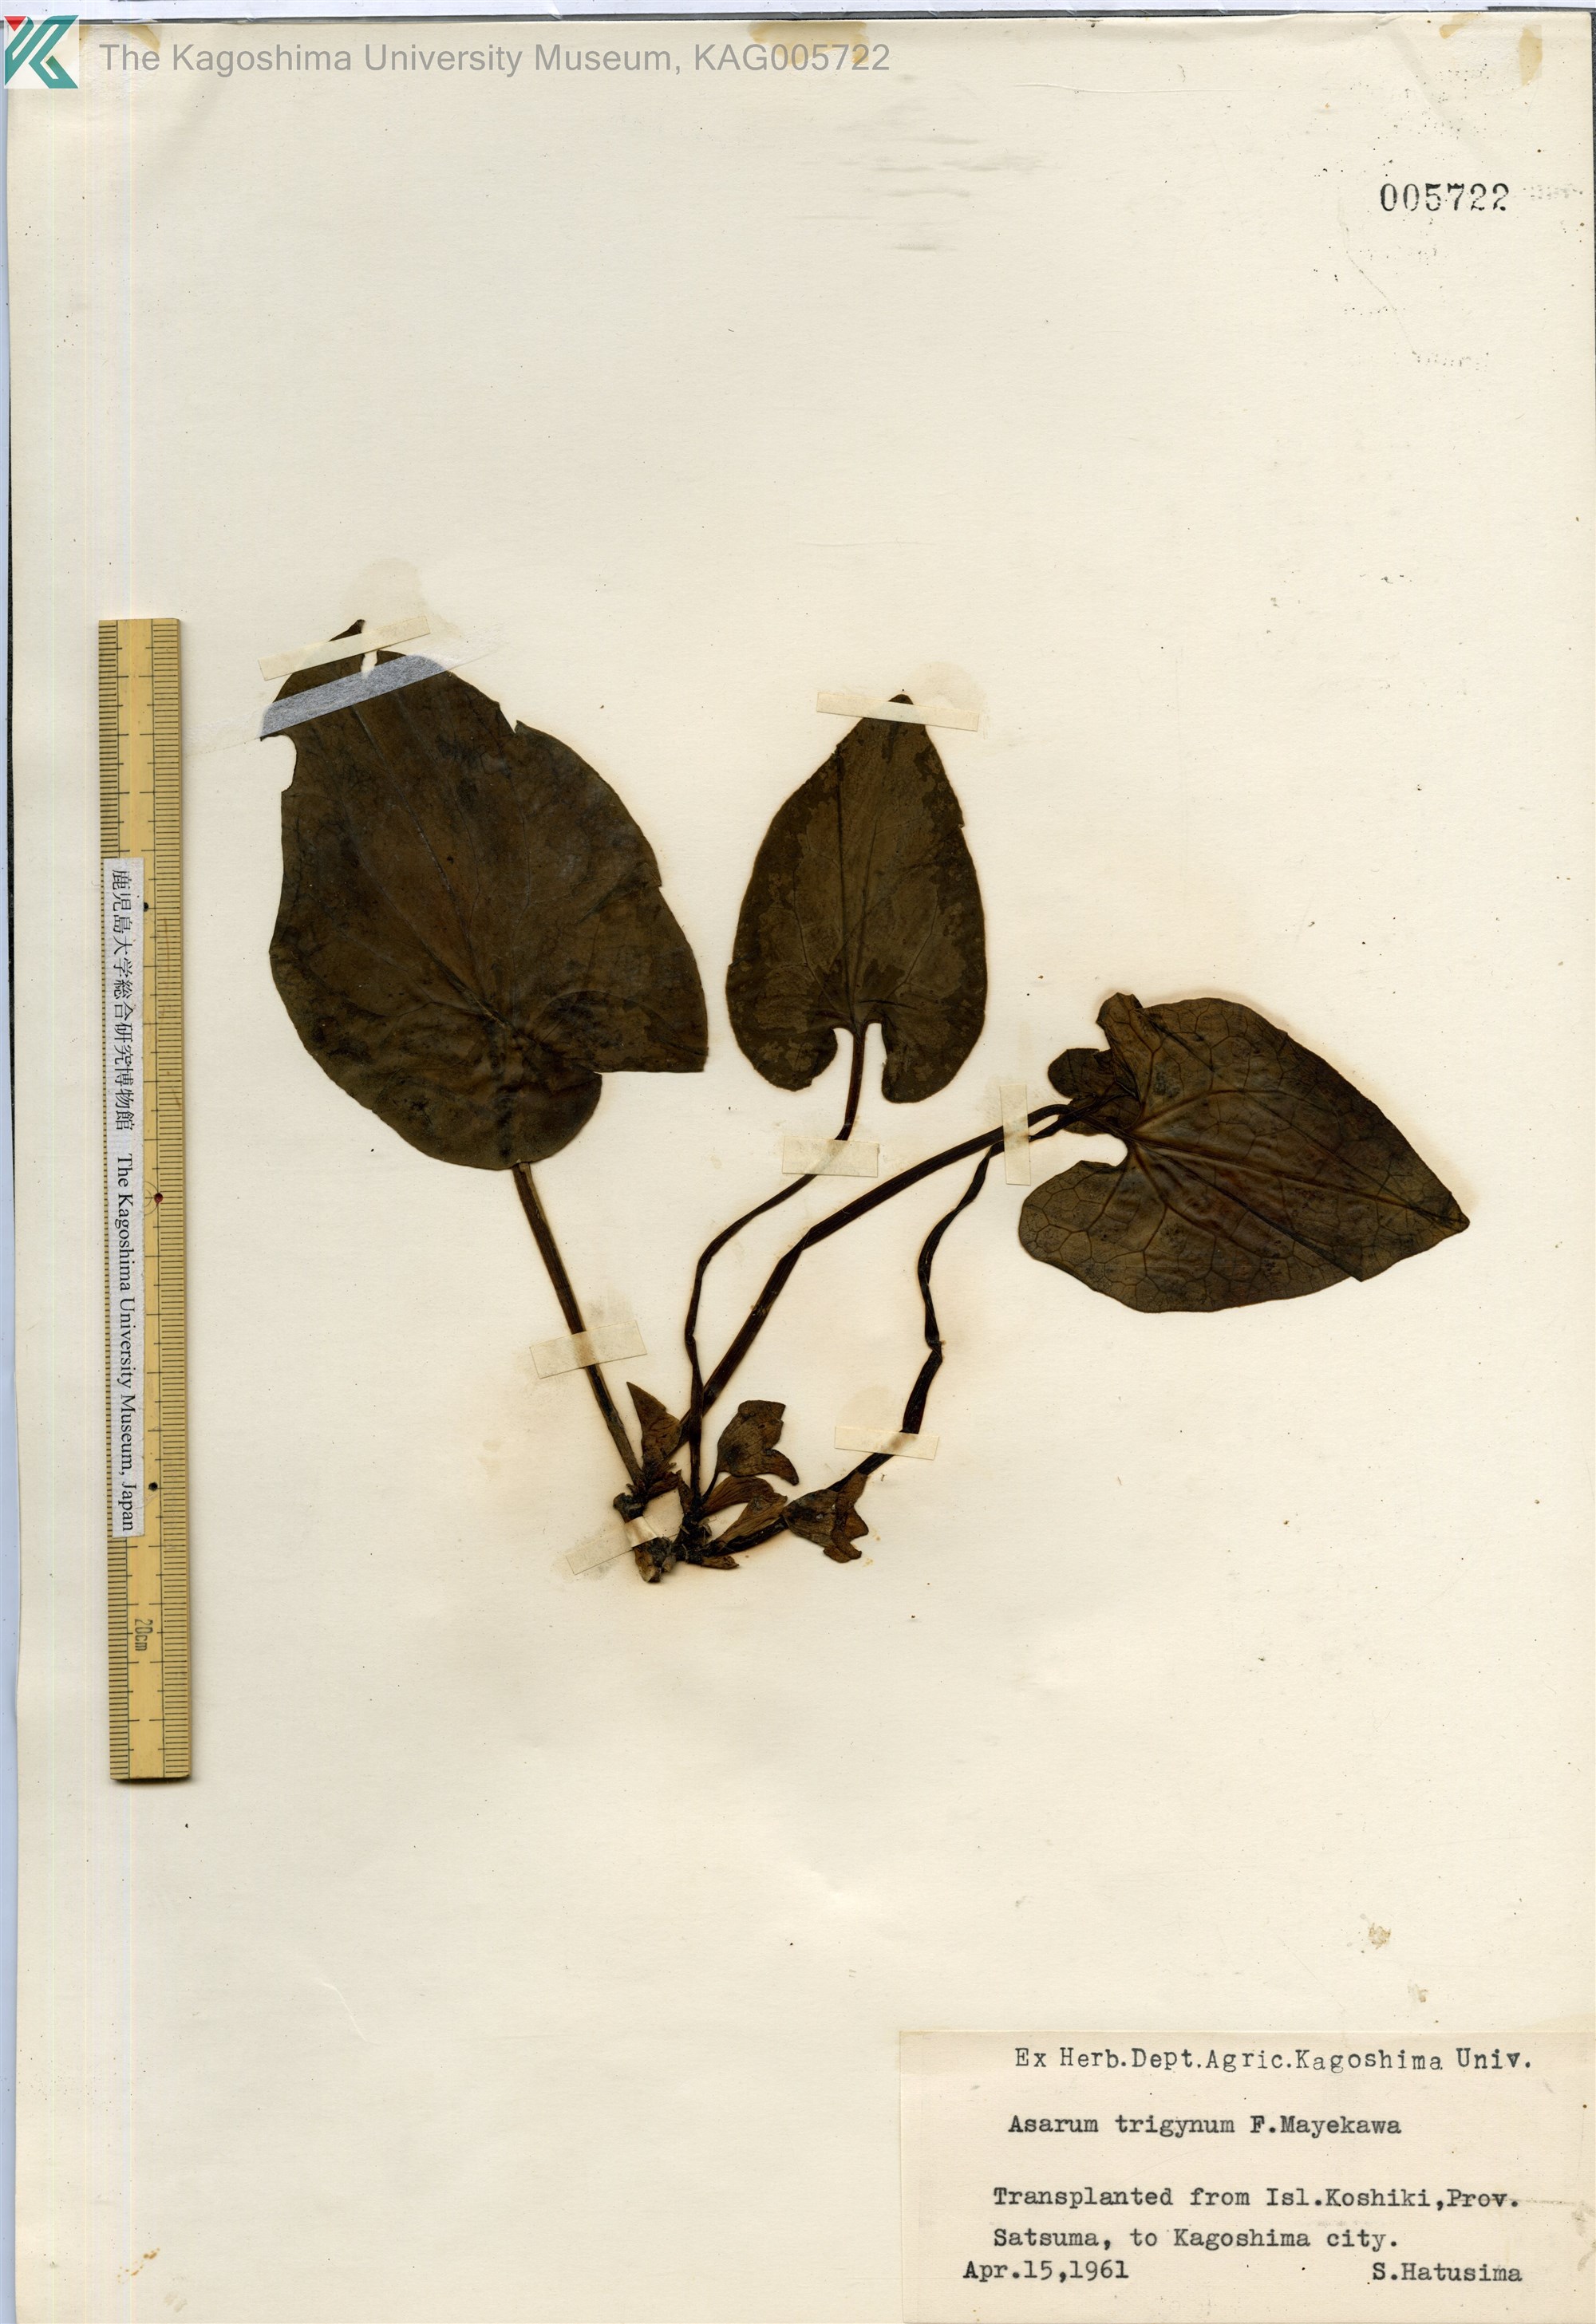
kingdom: Plantae
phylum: Tracheophyta
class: Magnoliopsida
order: Piperales
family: Aristolochiaceae
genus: Asarum
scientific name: Asarum trigynum
